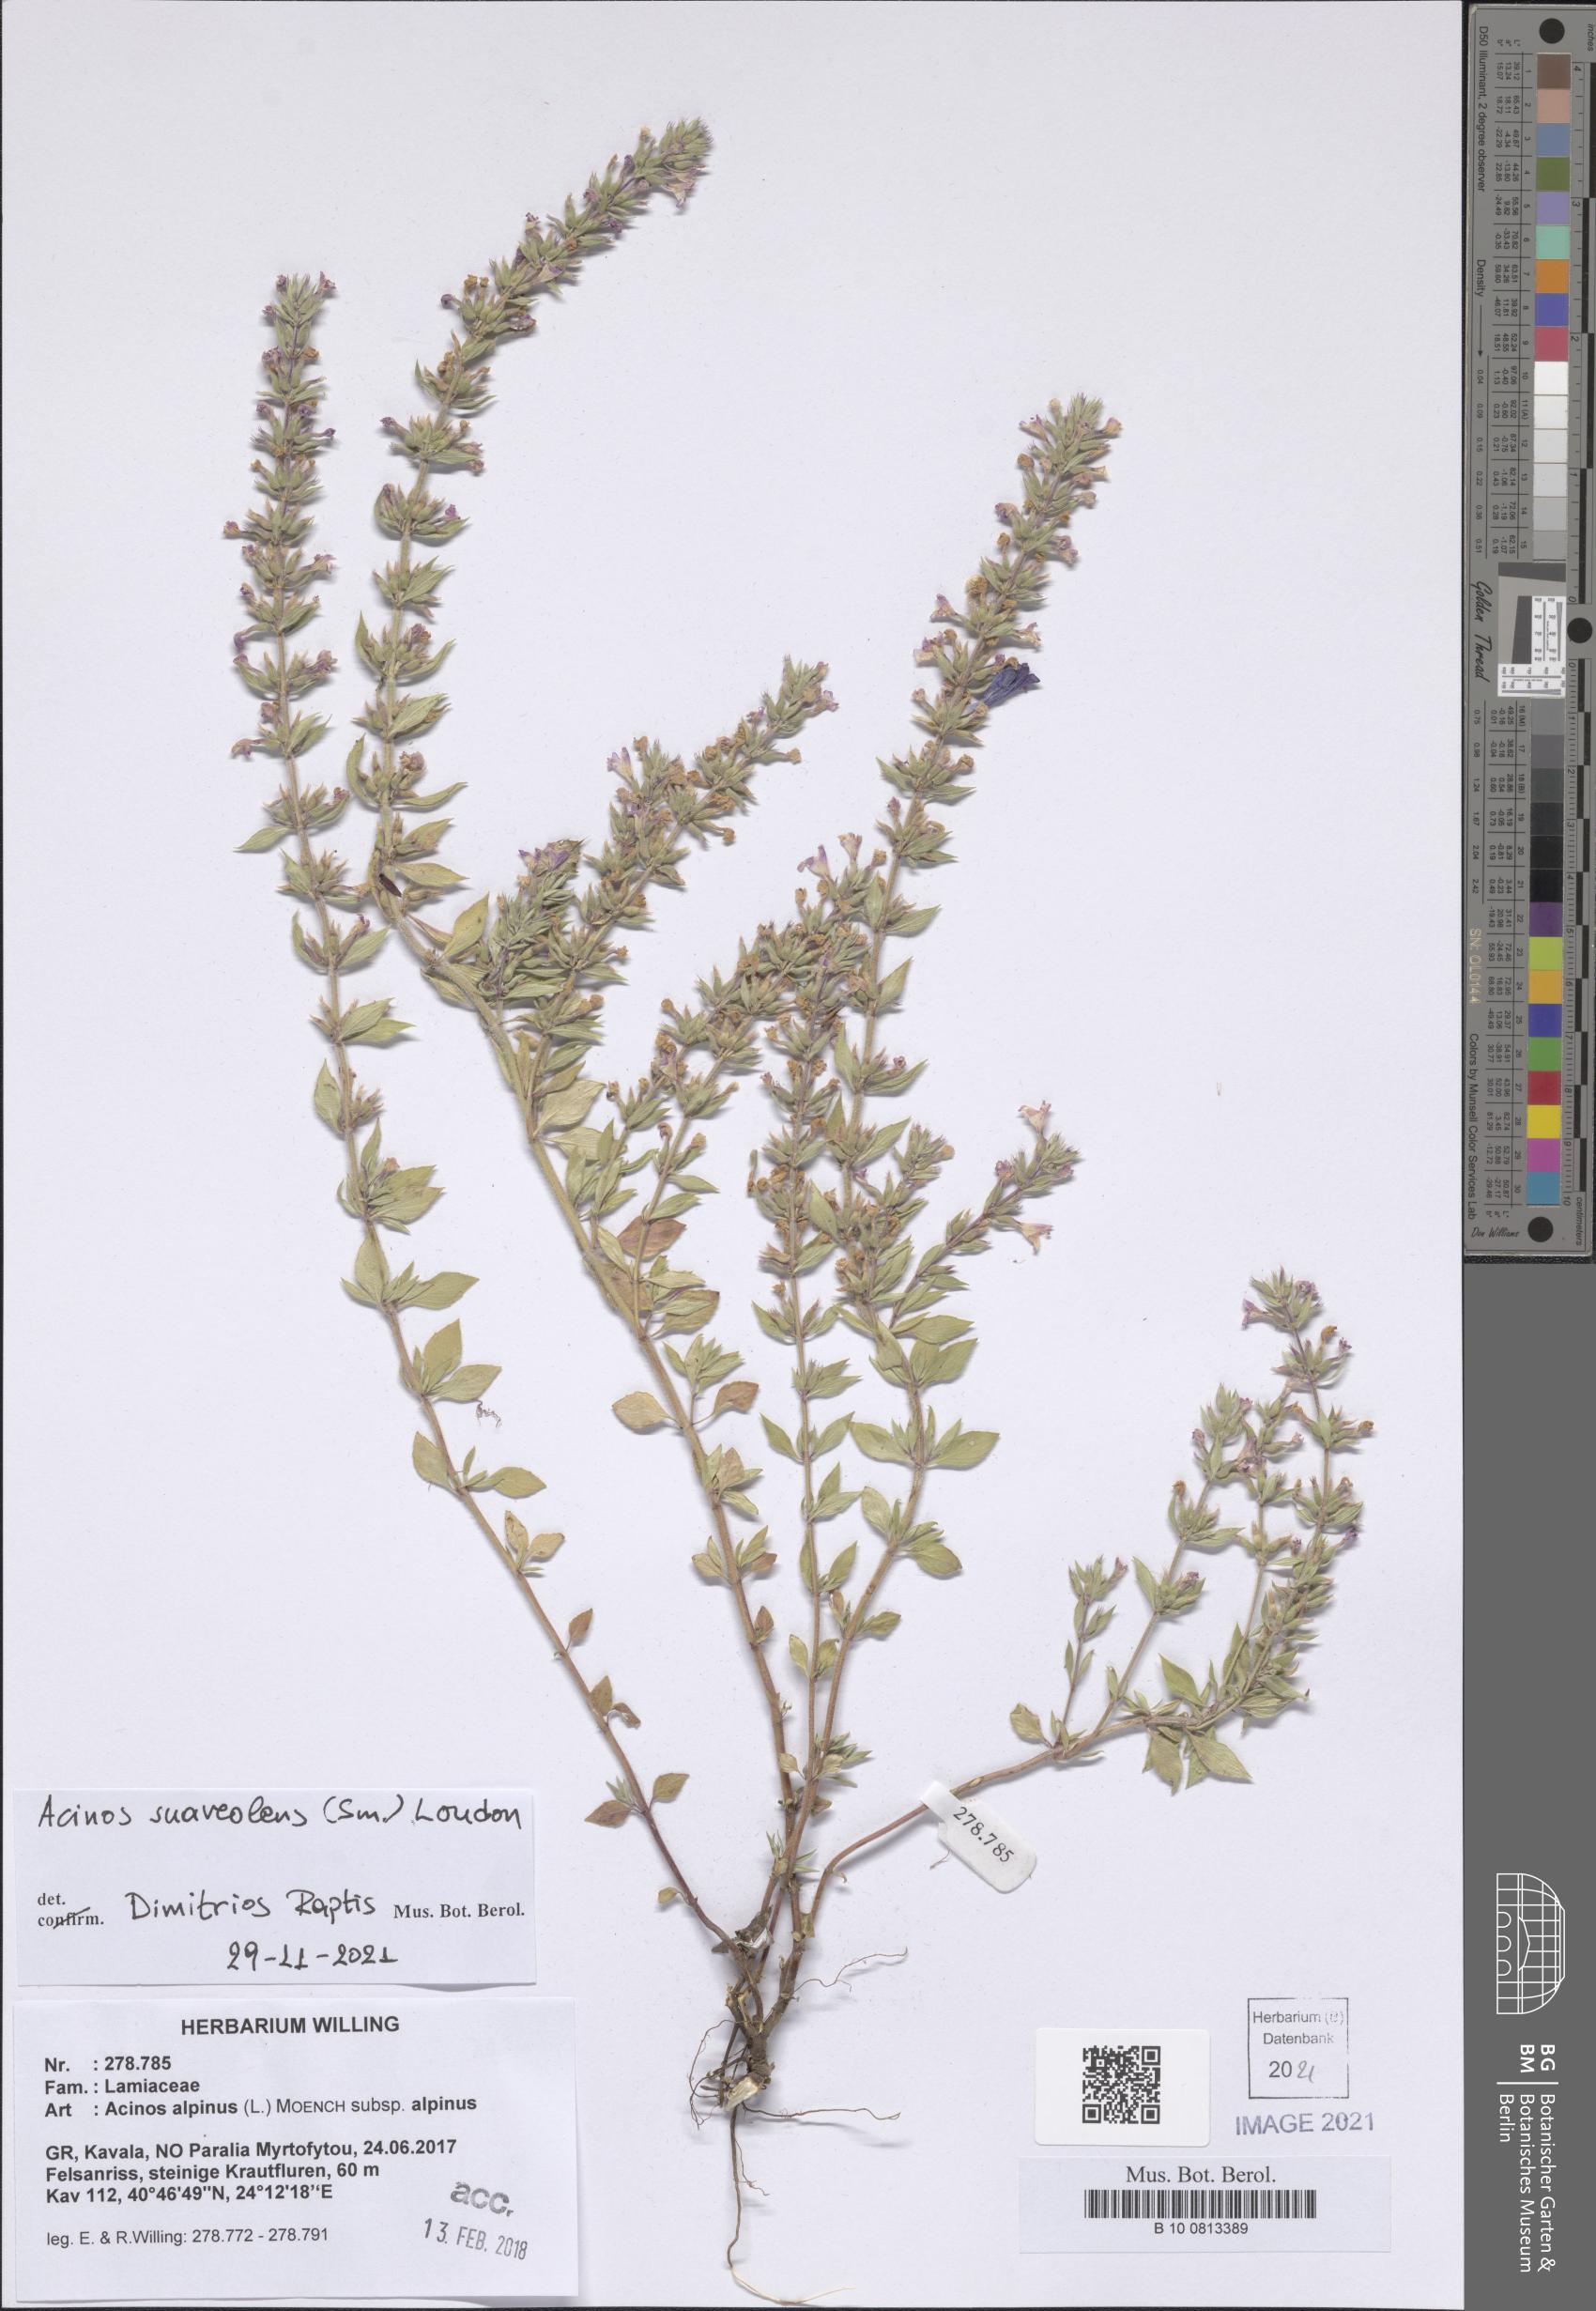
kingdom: Plantae
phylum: Tracheophyta
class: Magnoliopsida
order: Lamiales
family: Lamiaceae
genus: Clinopodium
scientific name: Clinopodium suaveolens
